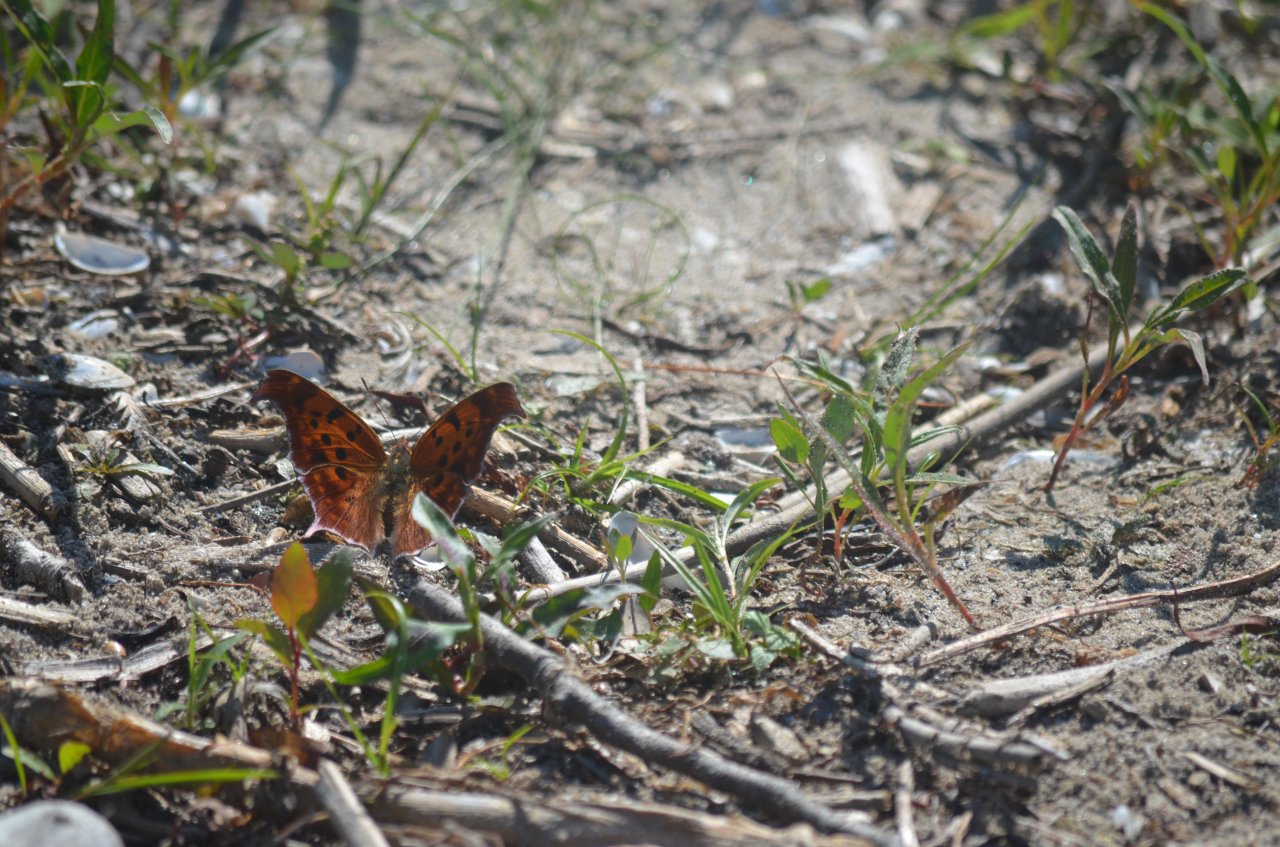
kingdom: Animalia
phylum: Arthropoda
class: Insecta
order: Lepidoptera
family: Nymphalidae
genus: Polygonia
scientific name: Polygonia interrogationis
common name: Question Mark
